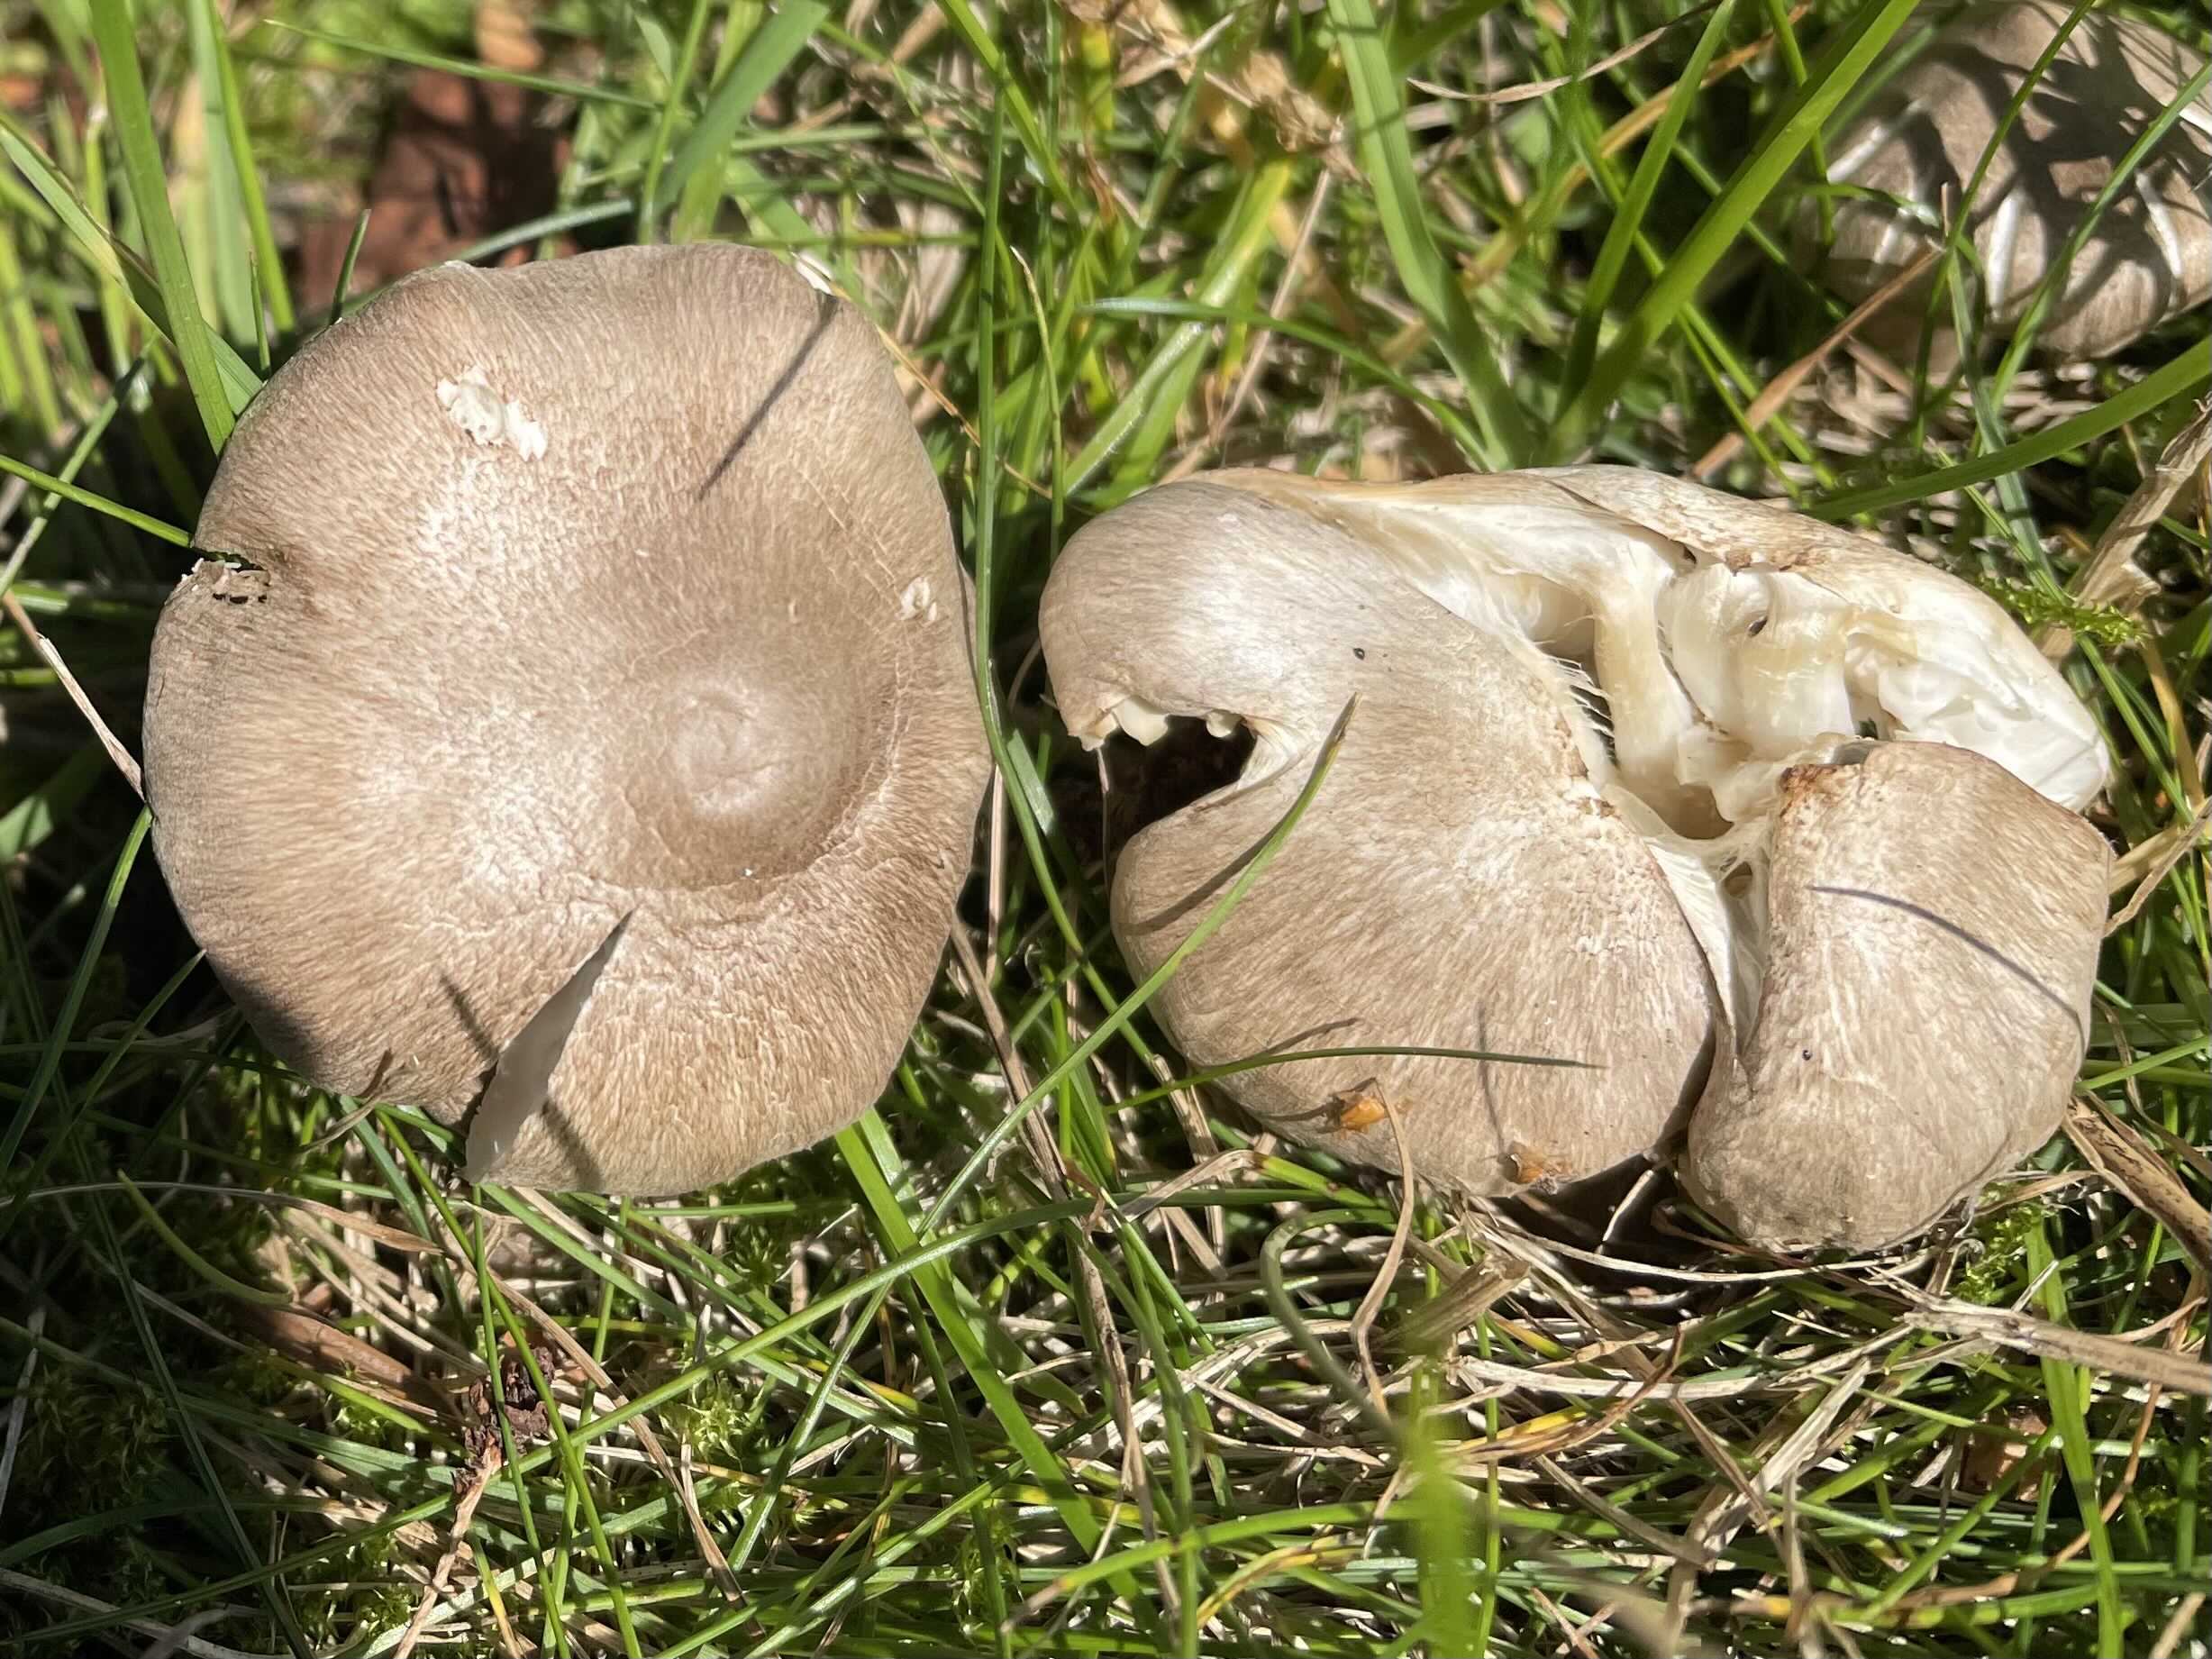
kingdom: Fungi
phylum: Basidiomycota
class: Agaricomycetes
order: Agaricales
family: Tricholomataceae
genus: Tricholoma
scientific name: Tricholoma scalpturatum
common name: gulplettet ridderhat
